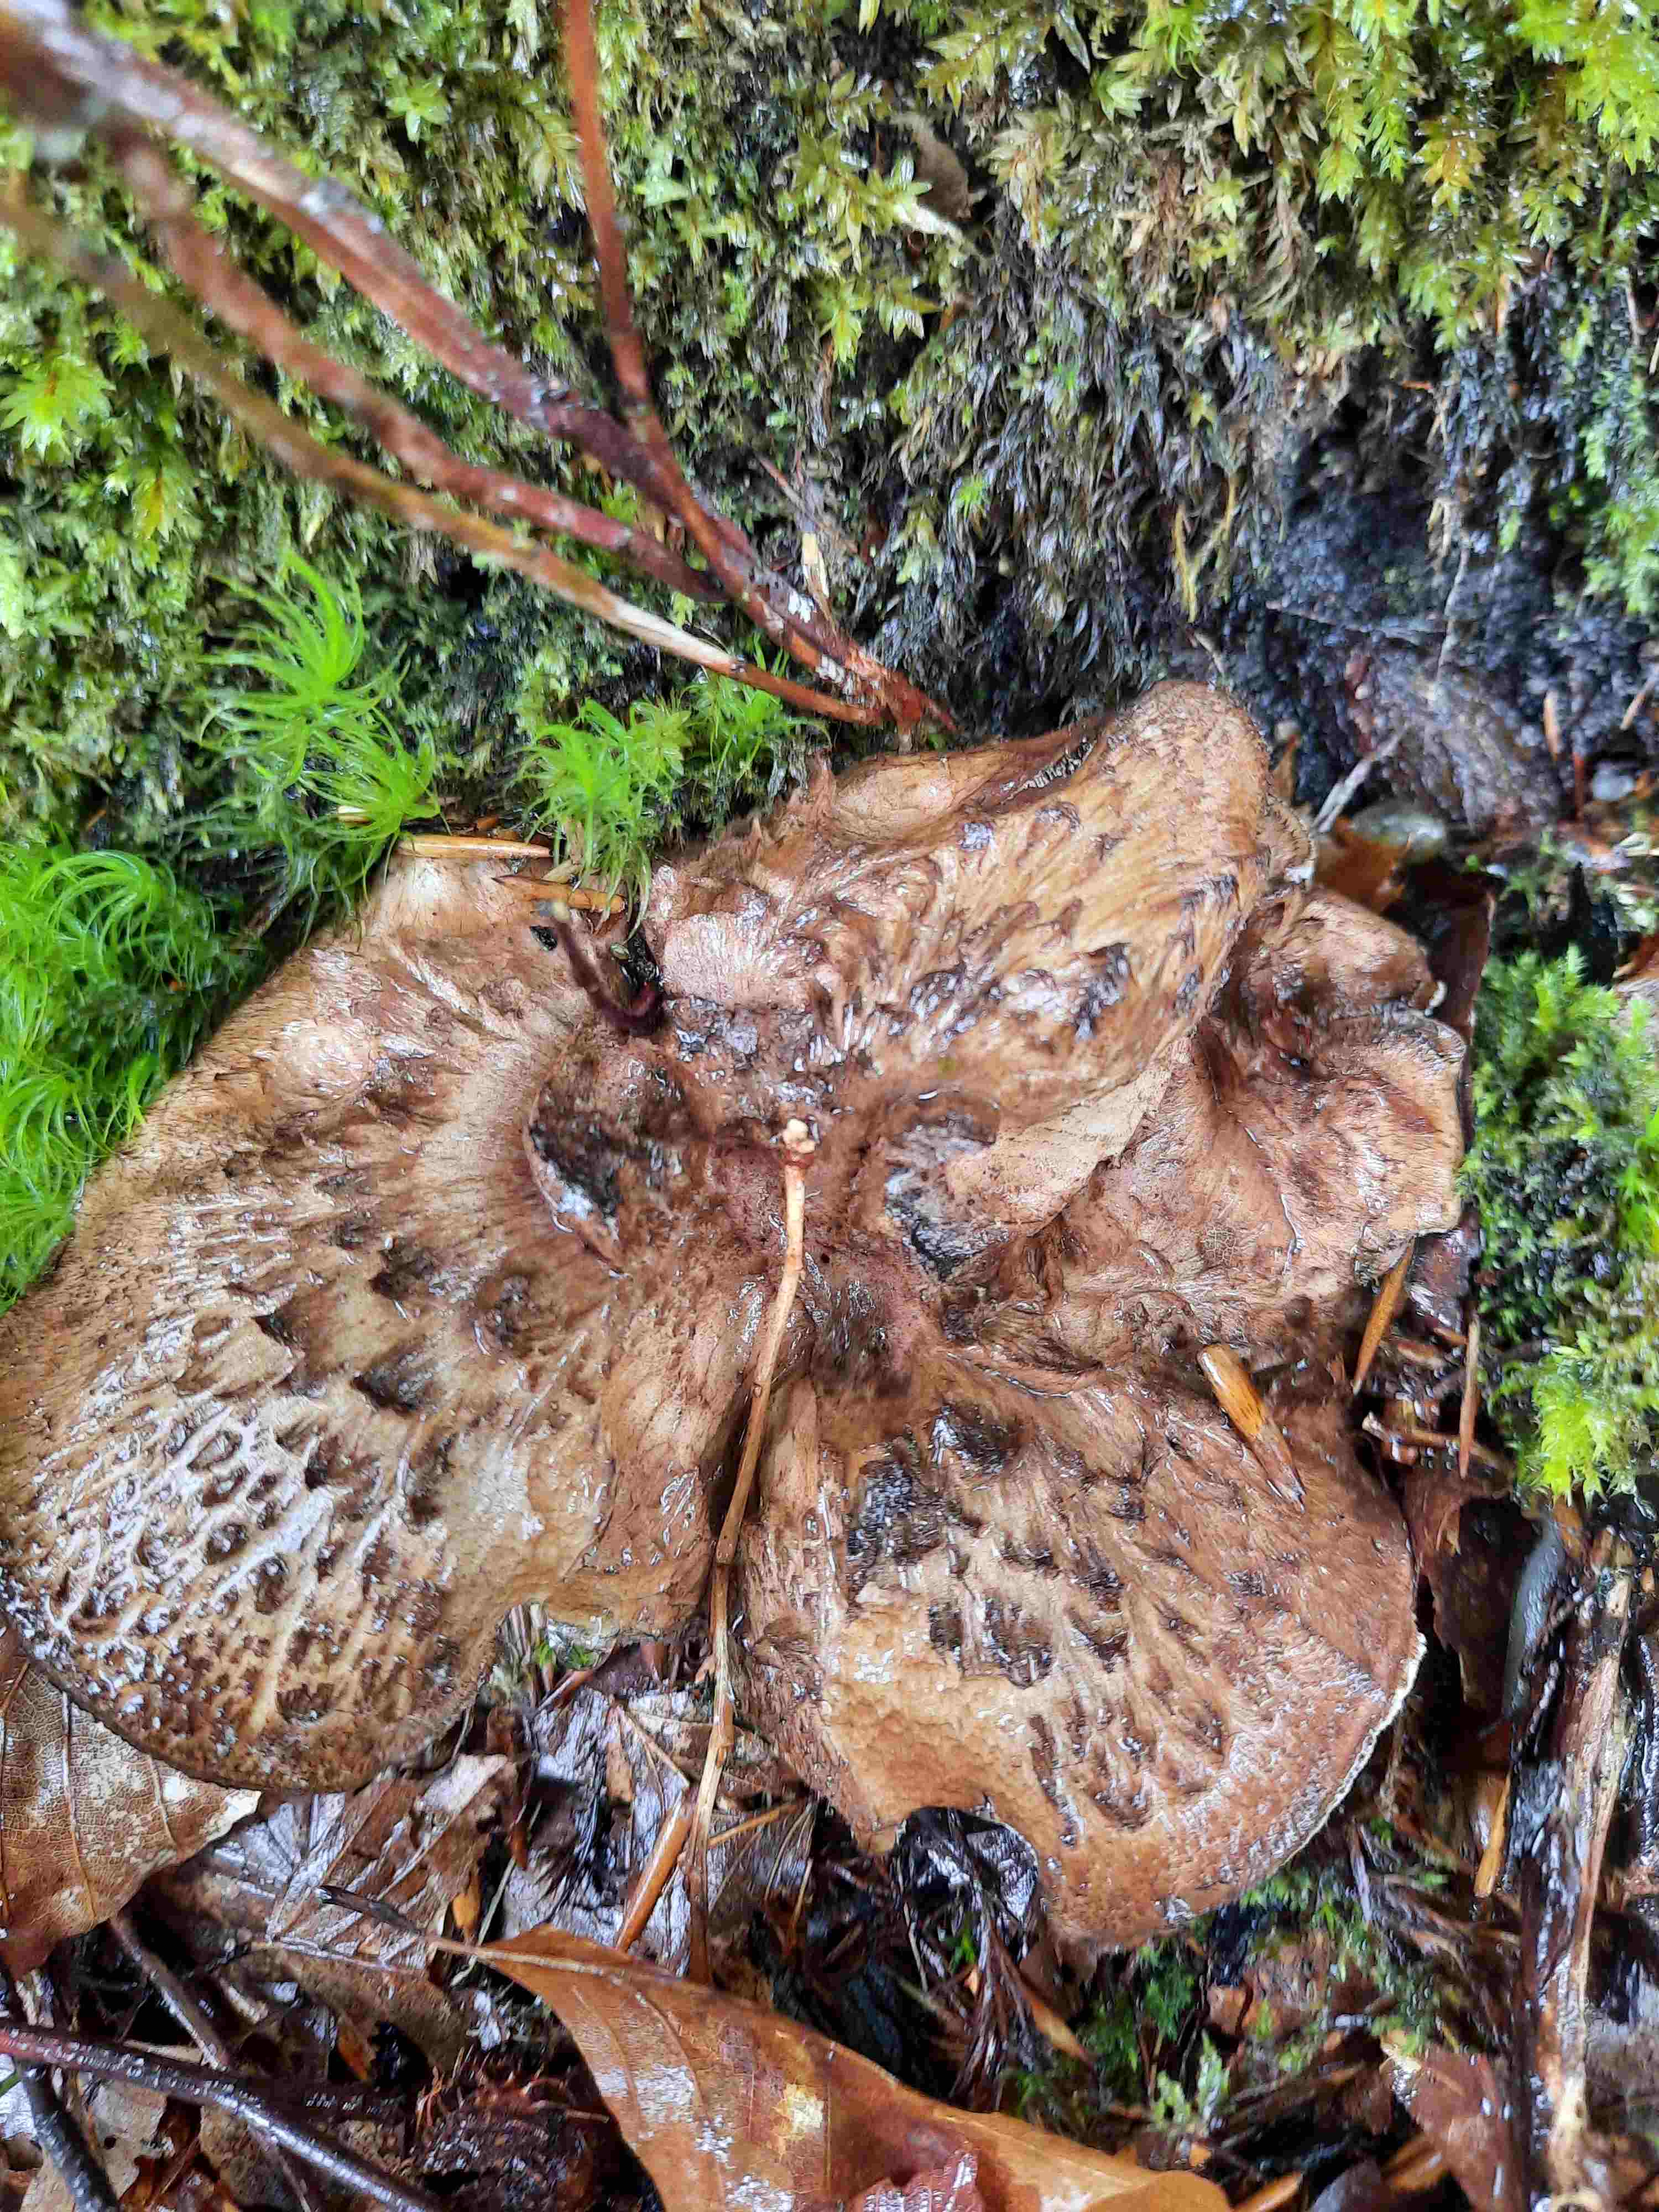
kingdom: Fungi
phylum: Basidiomycota
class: Agaricomycetes
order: Thelephorales
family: Bankeraceae
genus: Hydnellum
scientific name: Hydnellum lepidum
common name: skrænt-korkpigsvamp
